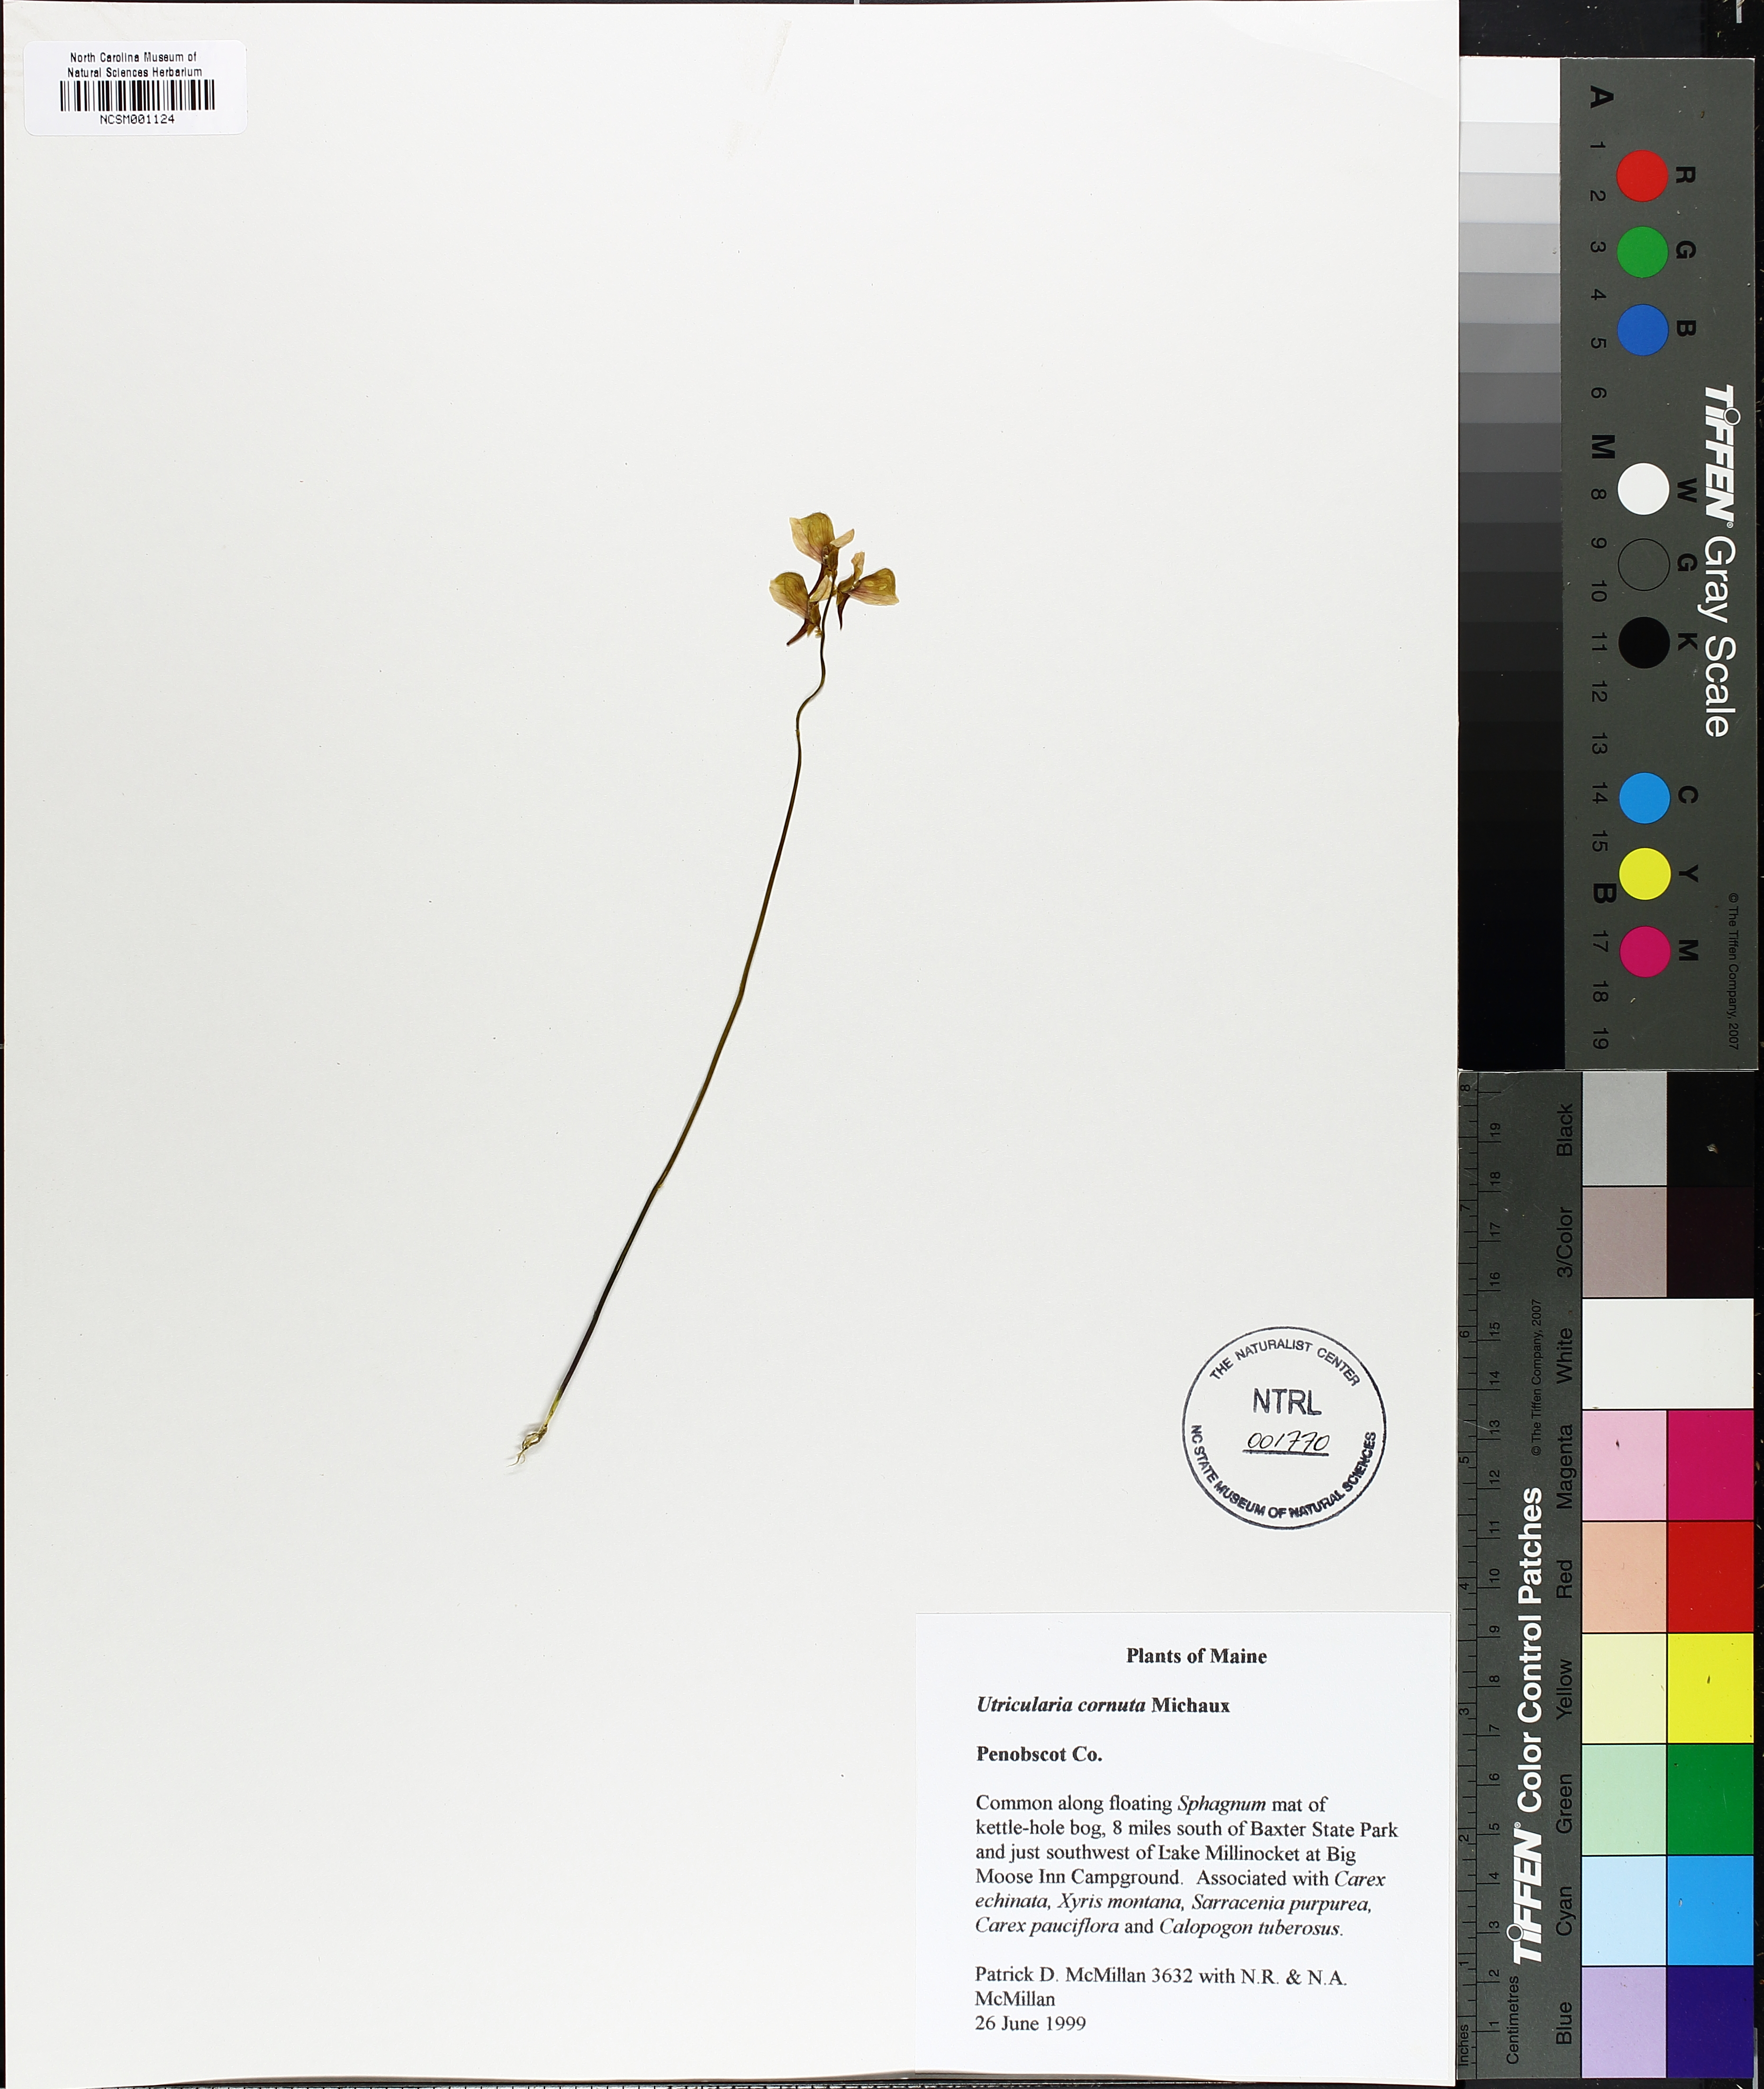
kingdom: Plantae
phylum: Tracheophyta
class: Magnoliopsida
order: Lamiales
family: Lentibulariaceae
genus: Utricularia
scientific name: Utricularia cornuta
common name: Horned bladderwort
